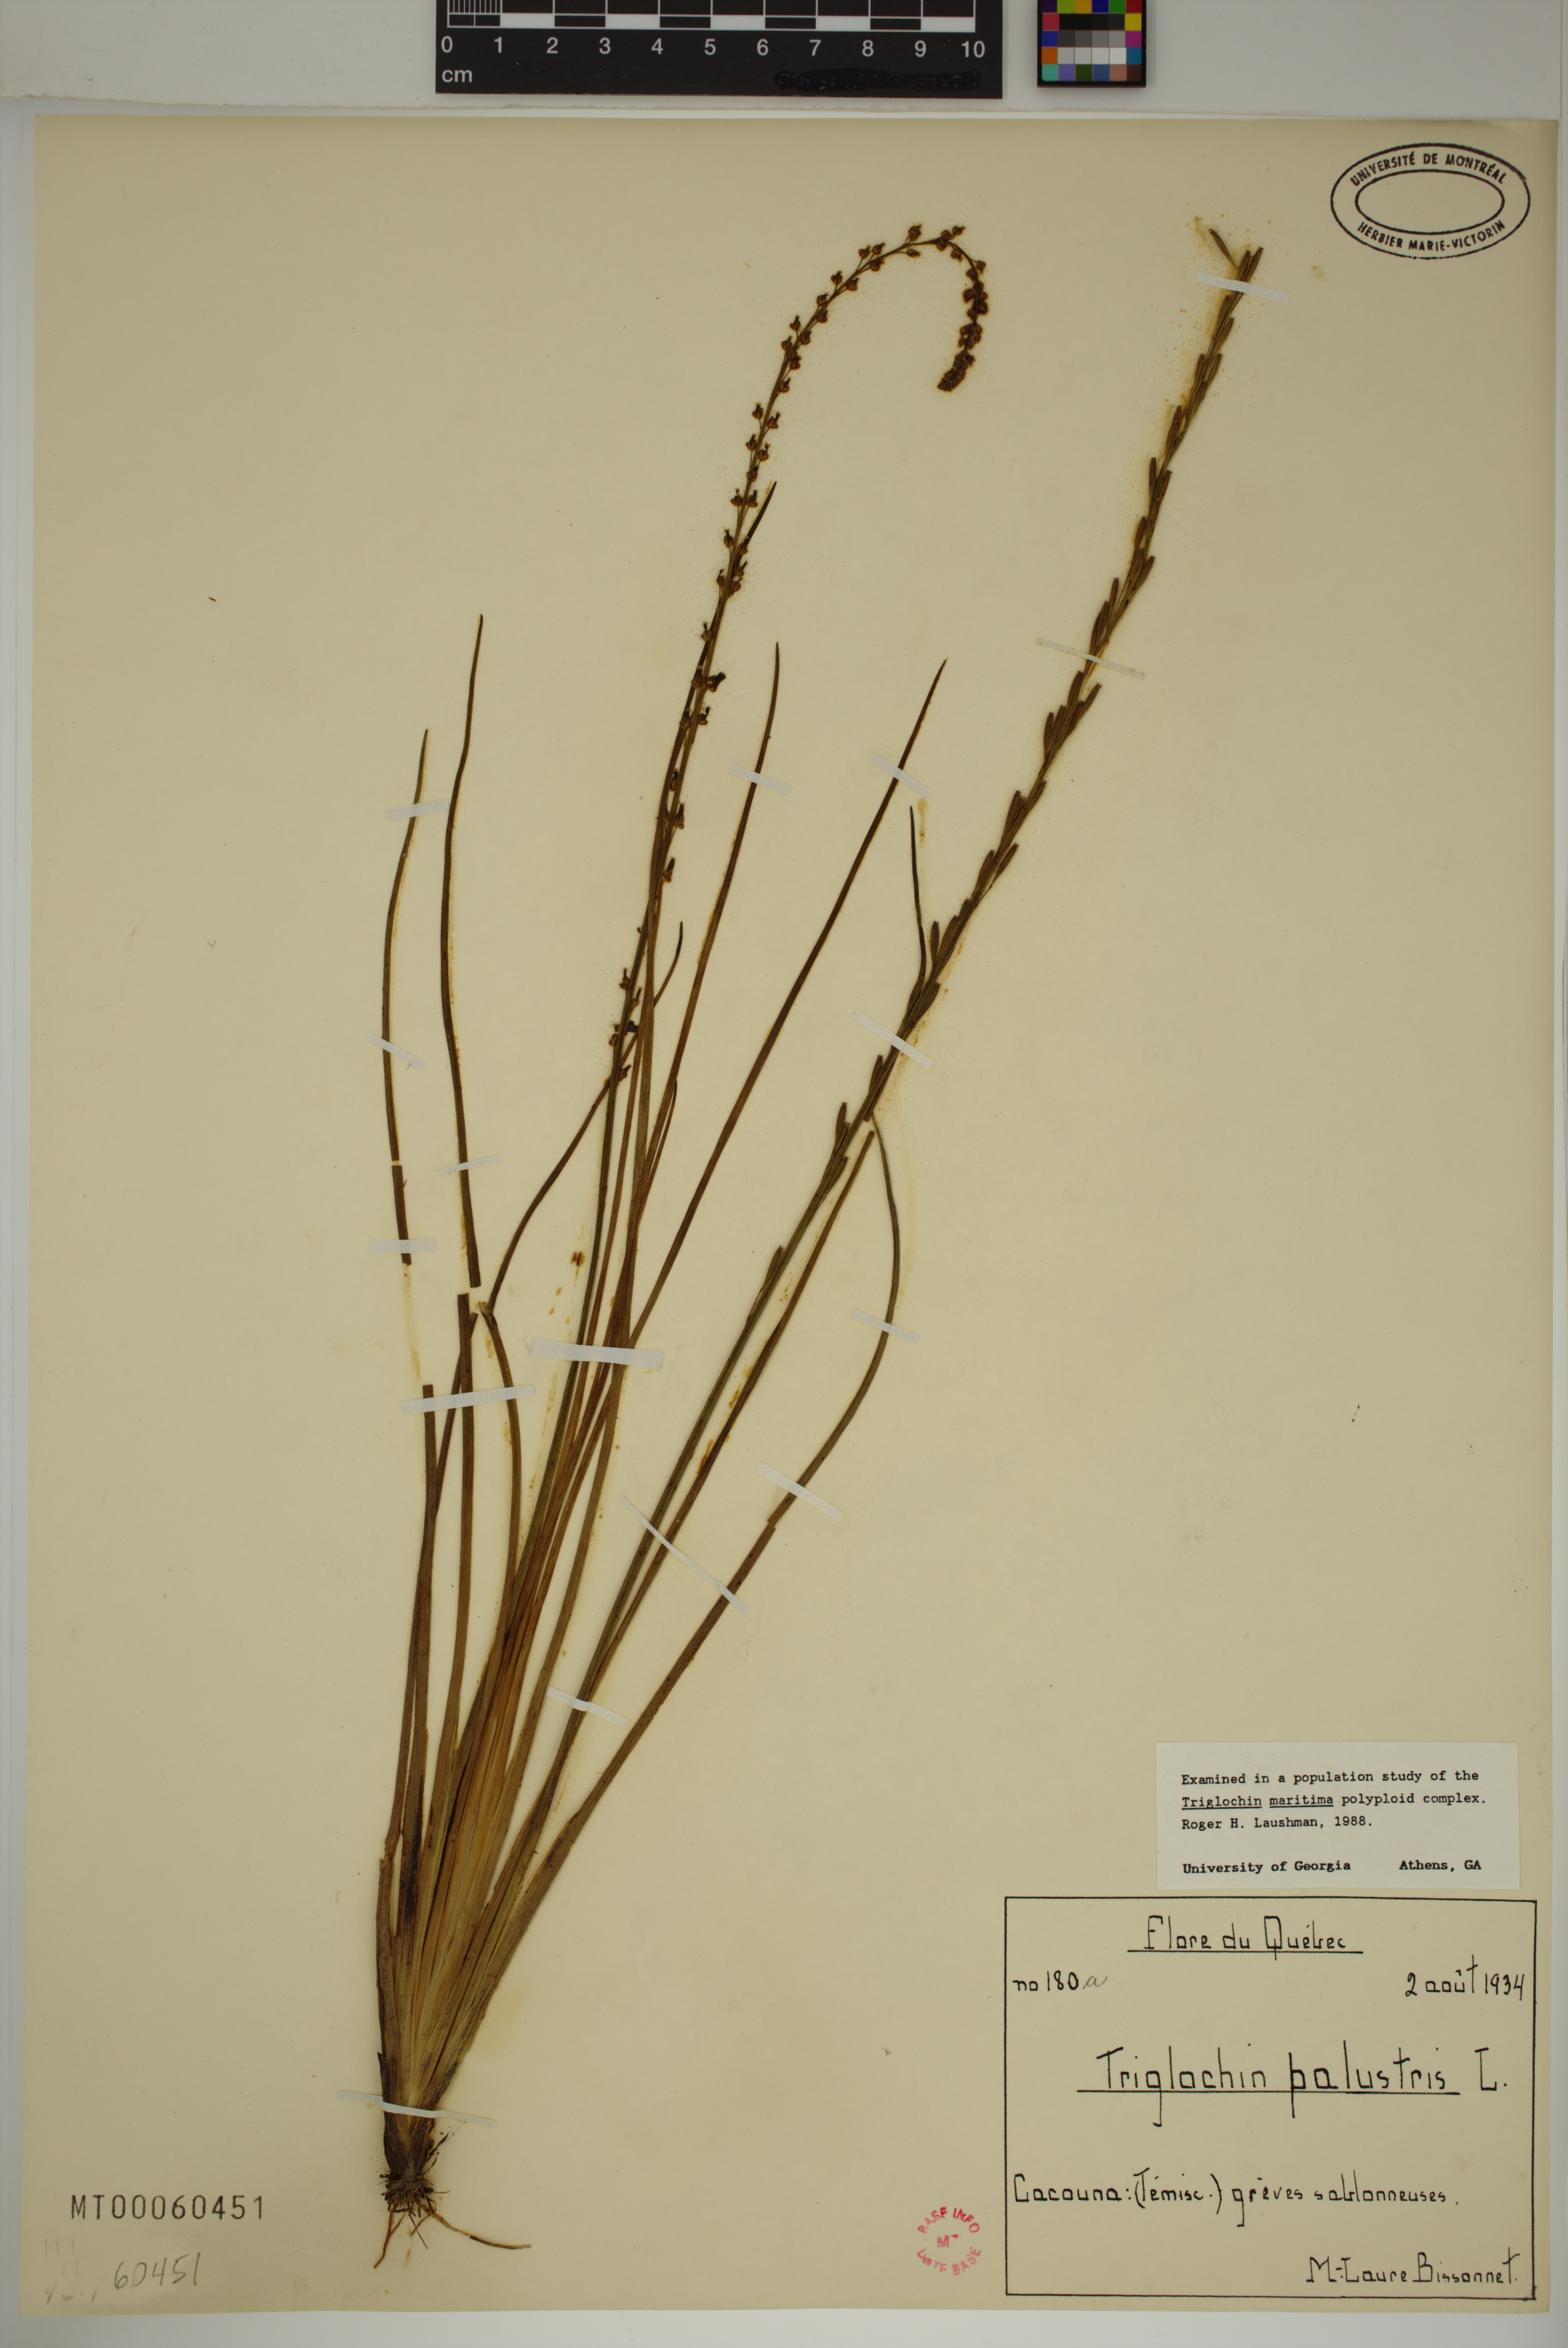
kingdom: Plantae
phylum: Tracheophyta
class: Liliopsida
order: Alismatales
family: Juncaginaceae
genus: Triglochin
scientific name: Triglochin palustris
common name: Marsh arrowgrass
